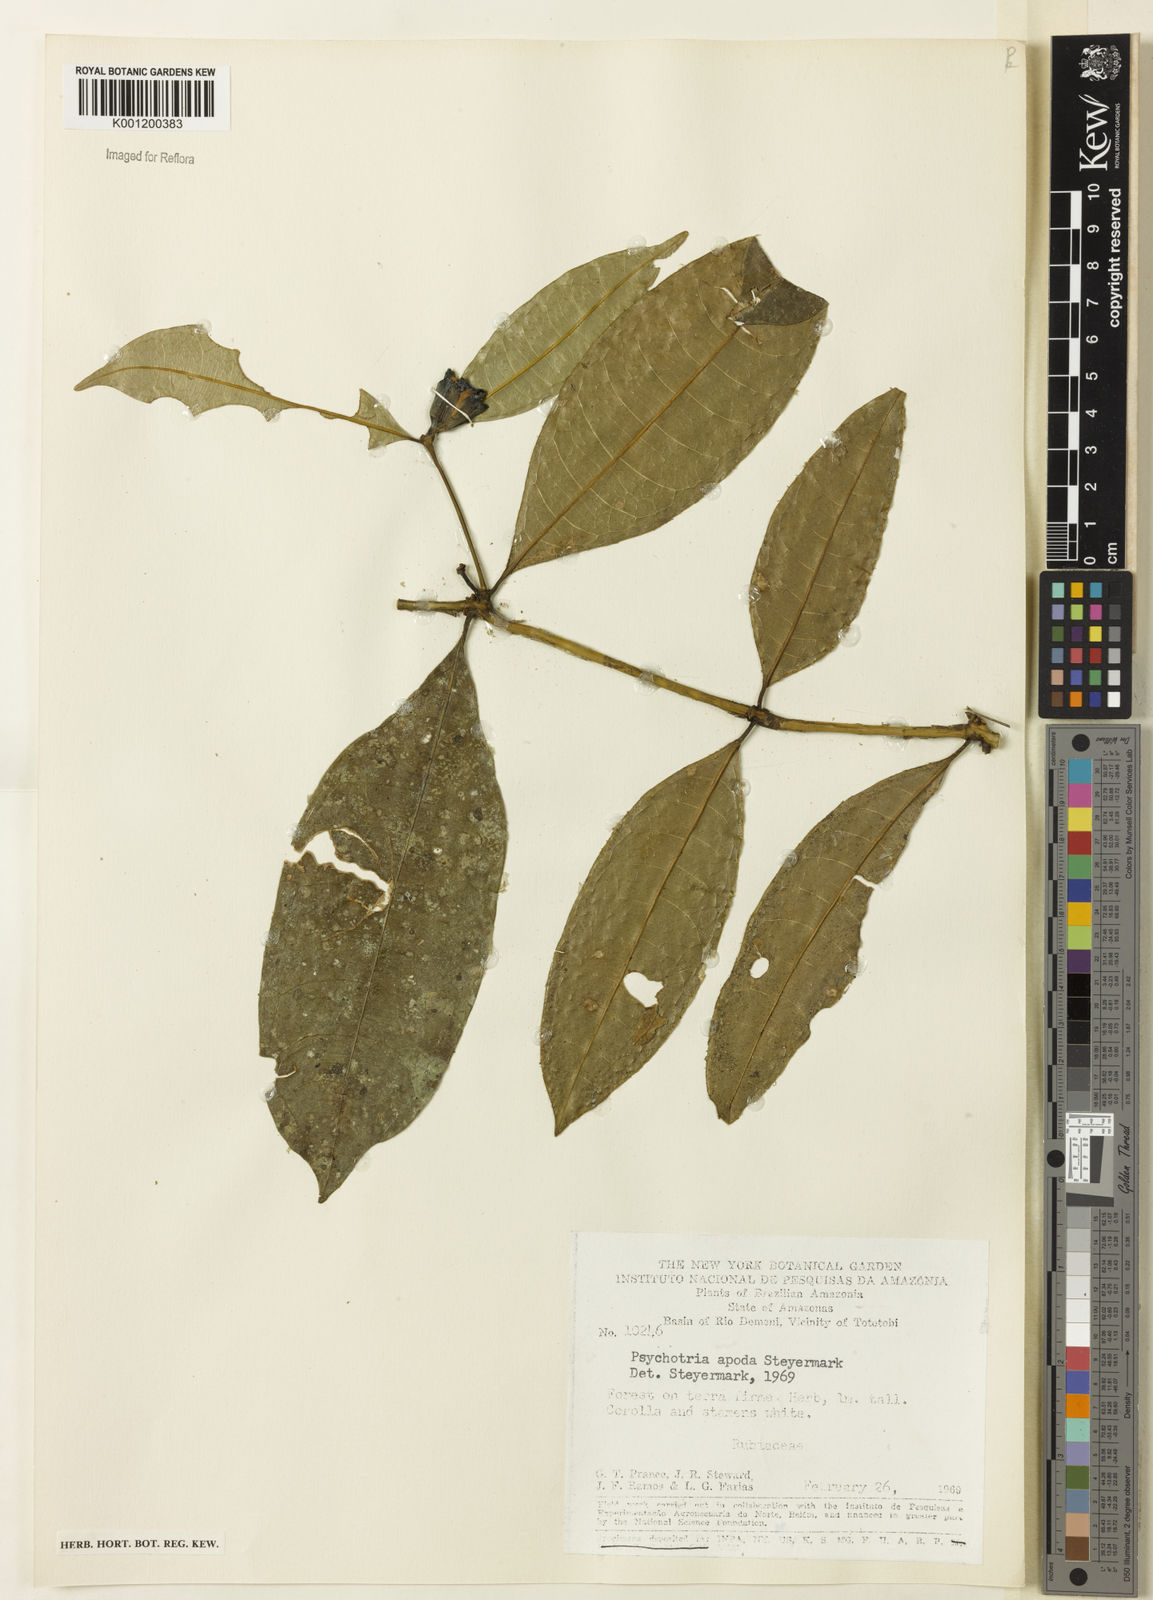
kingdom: Plantae
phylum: Tracheophyta
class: Magnoliopsida
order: Gentianales
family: Rubiaceae
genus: Palicourea
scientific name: Palicourea apoda
